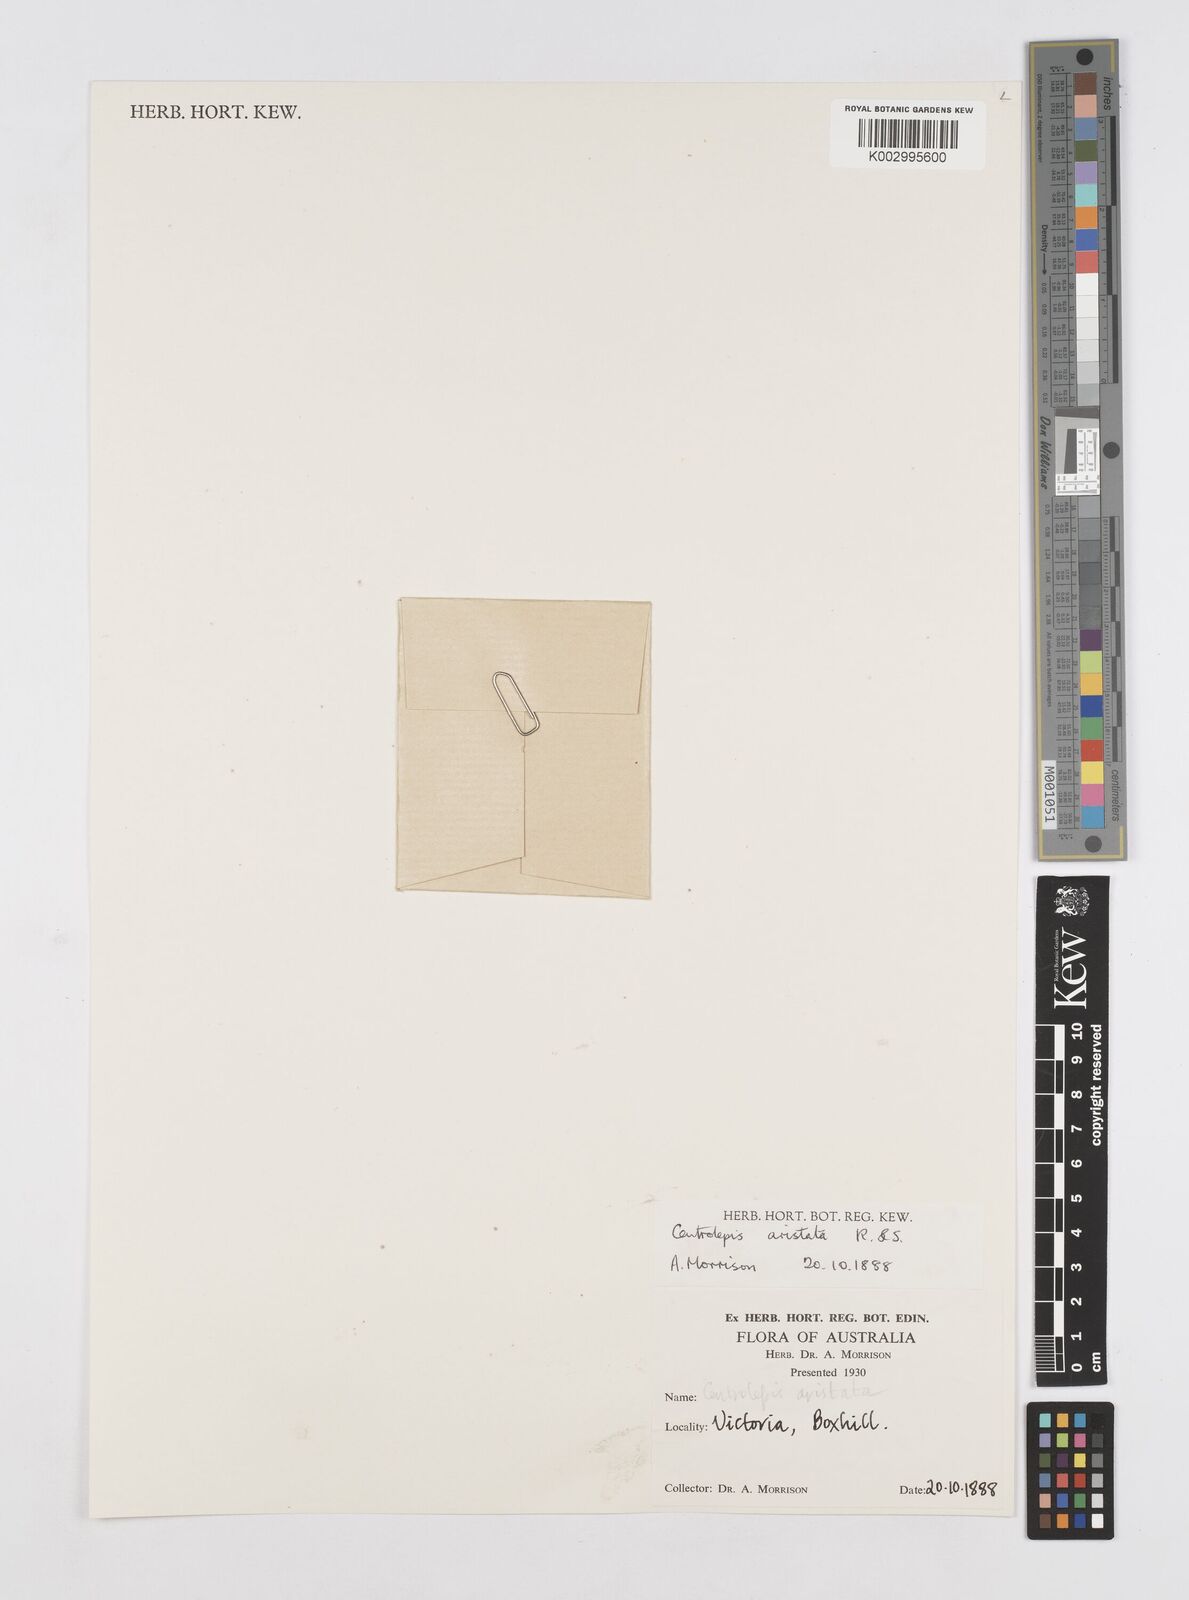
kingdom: Plantae
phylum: Tracheophyta
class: Liliopsida
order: Poales
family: Restionaceae
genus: Centrolepis
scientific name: Centrolepis aristata
